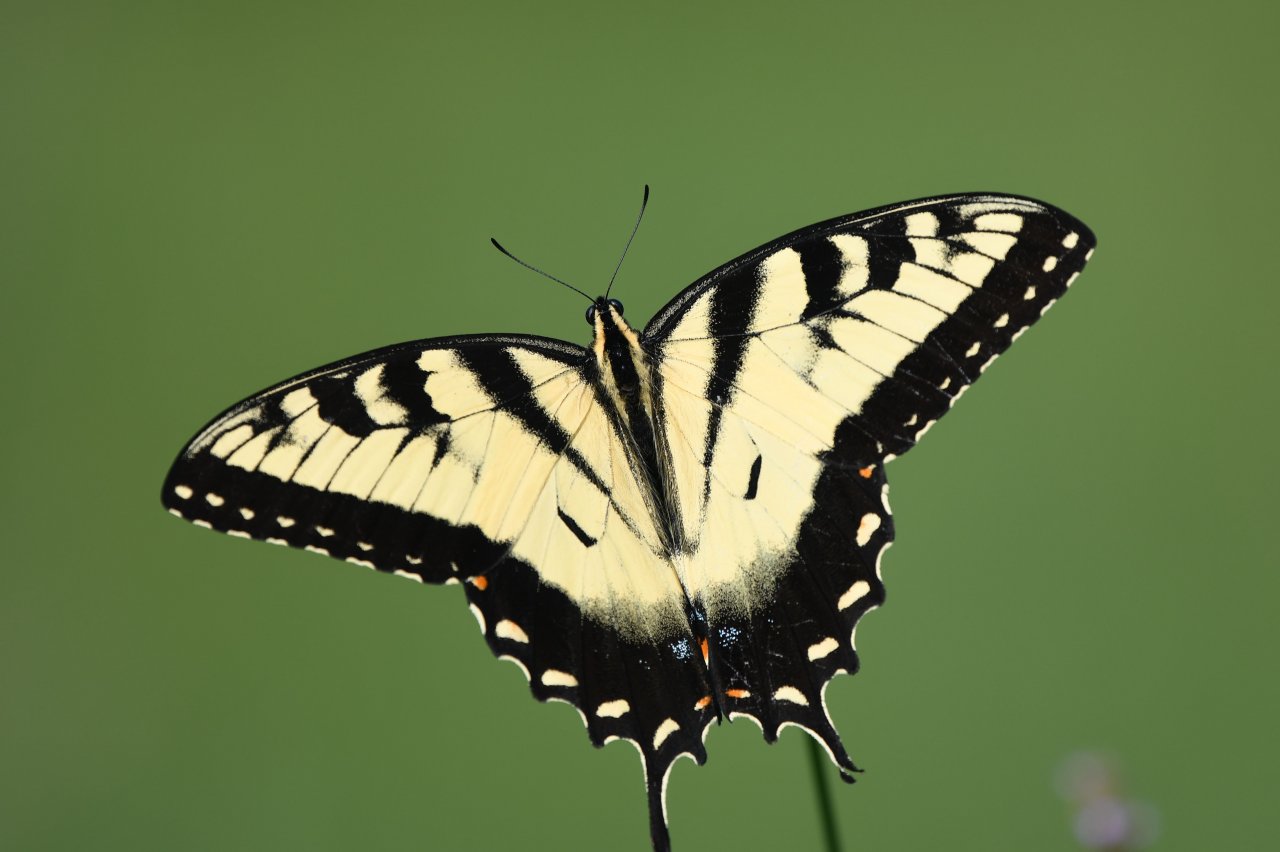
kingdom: Animalia
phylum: Arthropoda
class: Insecta
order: Lepidoptera
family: Papilionidae
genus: Pterourus
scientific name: Pterourus glaucus
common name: Eastern Tiger Swallowtail
